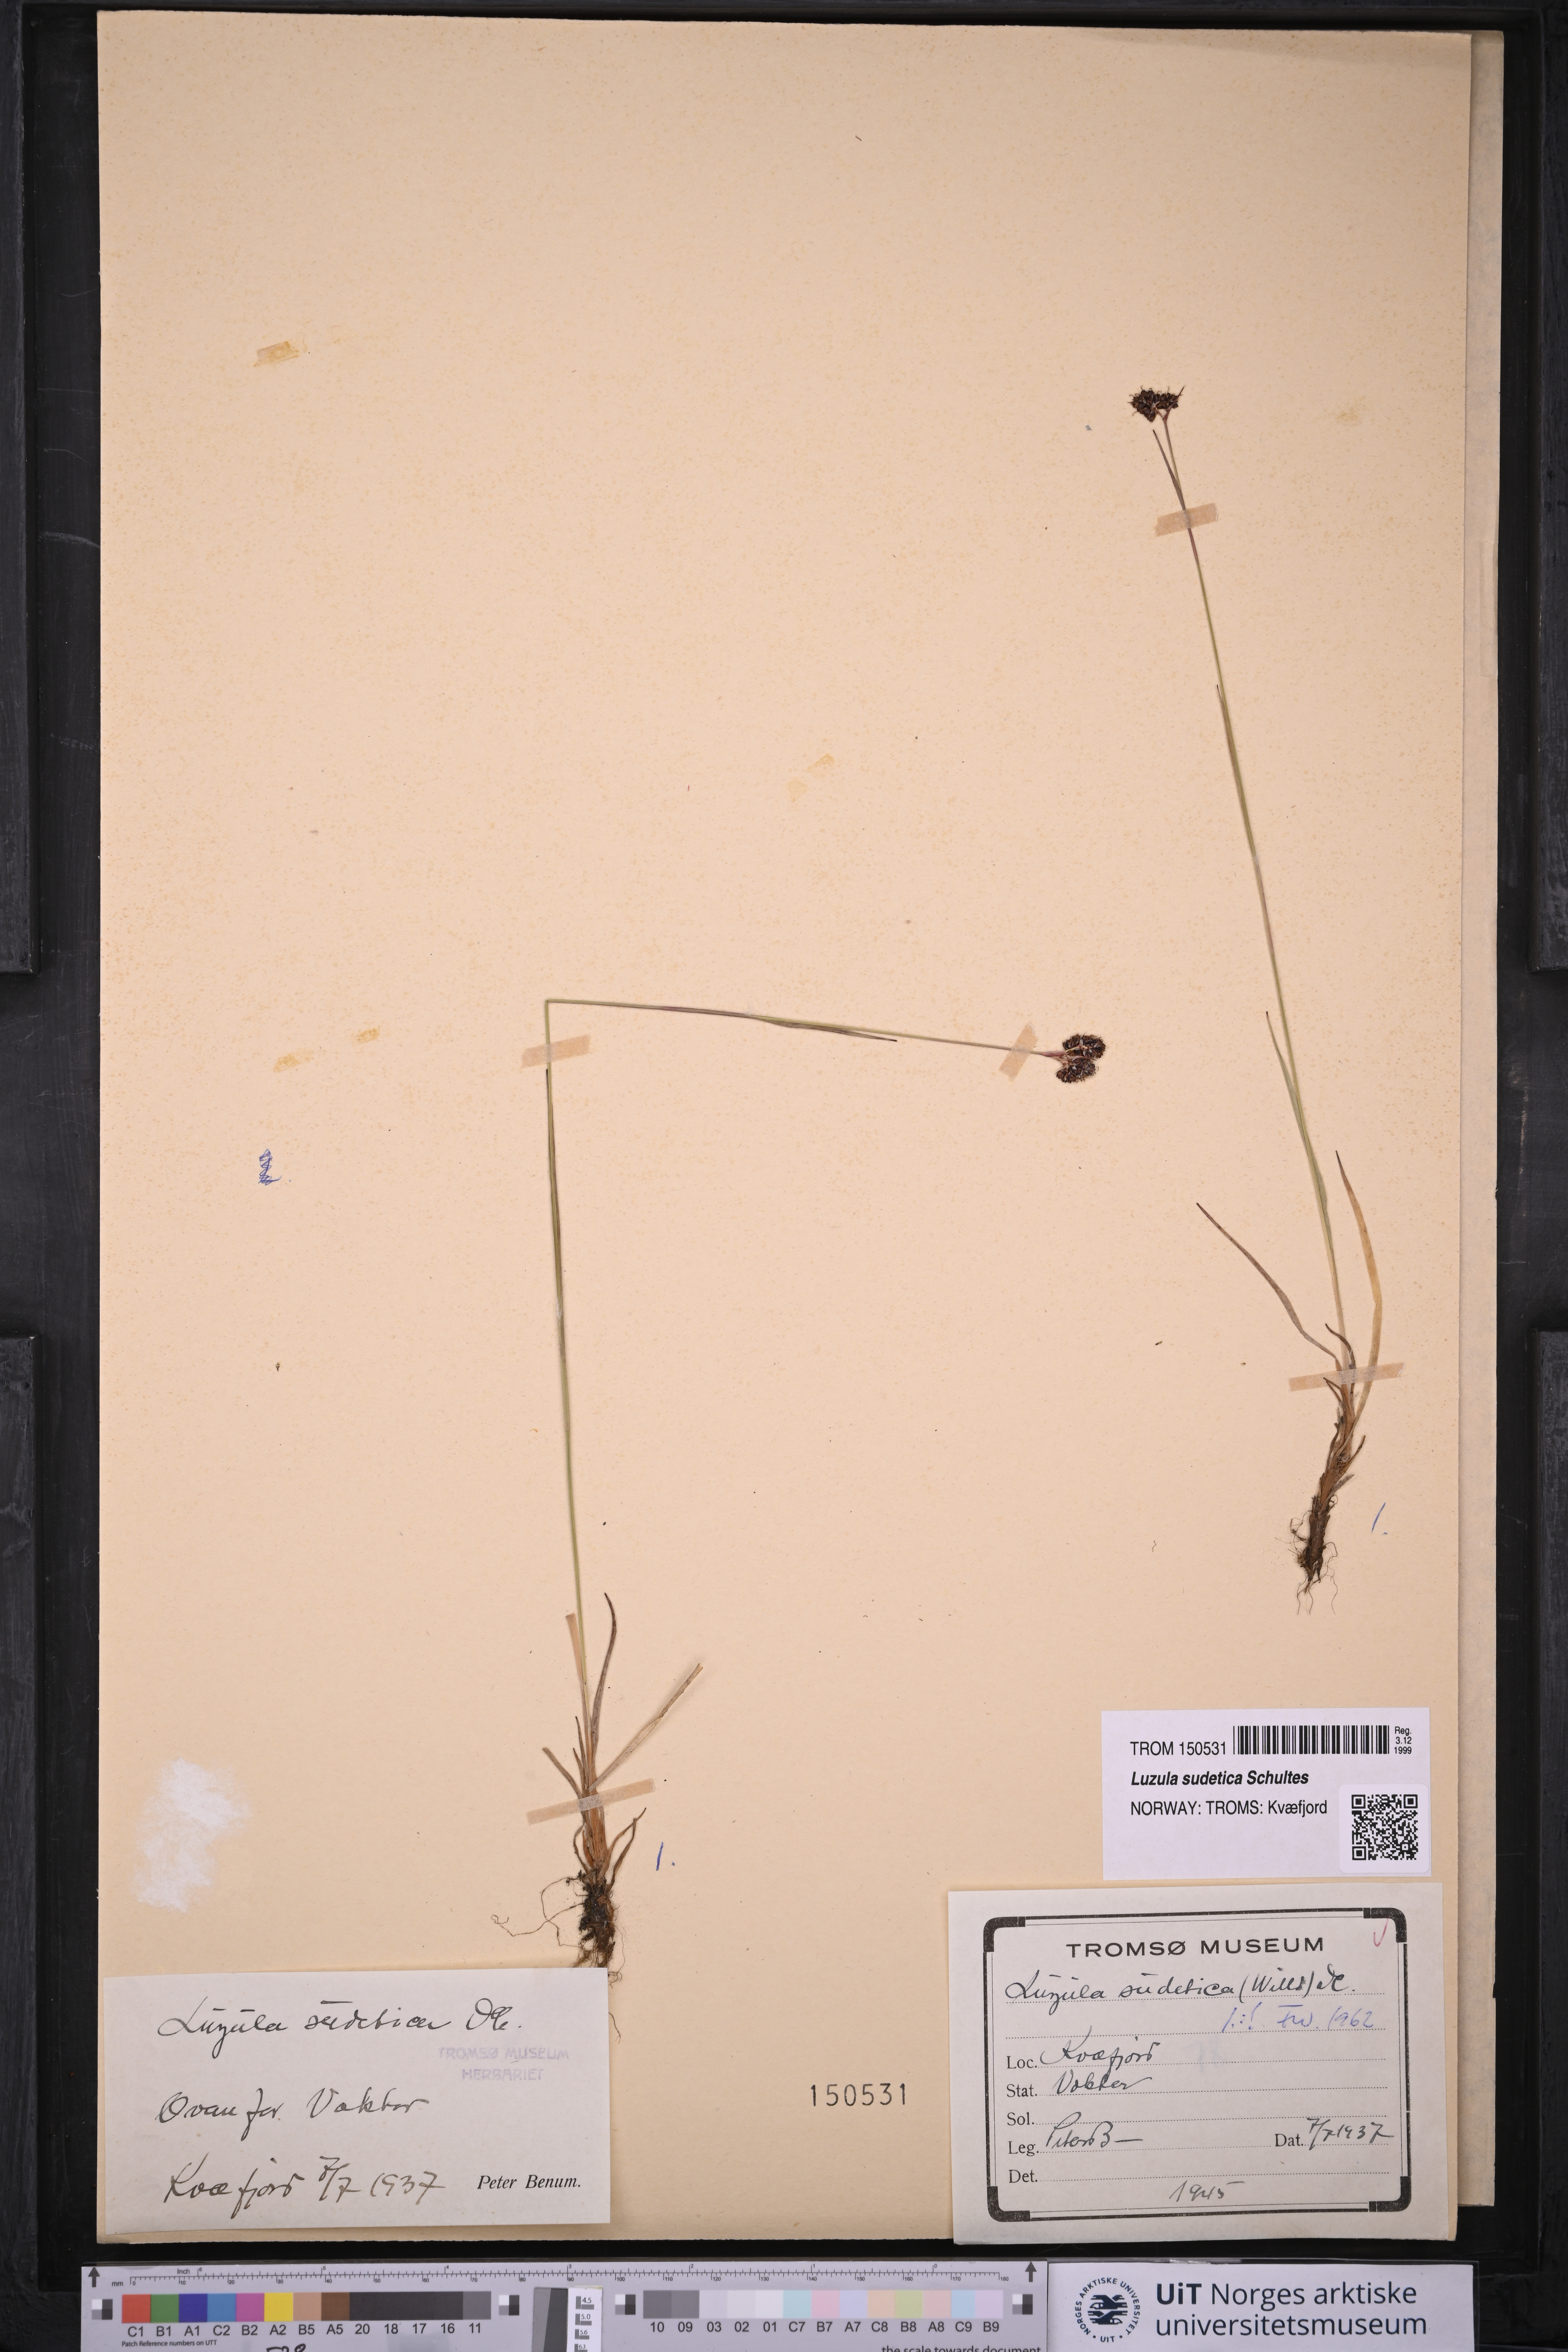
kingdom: Plantae
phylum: Tracheophyta
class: Liliopsida
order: Poales
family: Juncaceae
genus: Luzula
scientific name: Luzula sudetica
